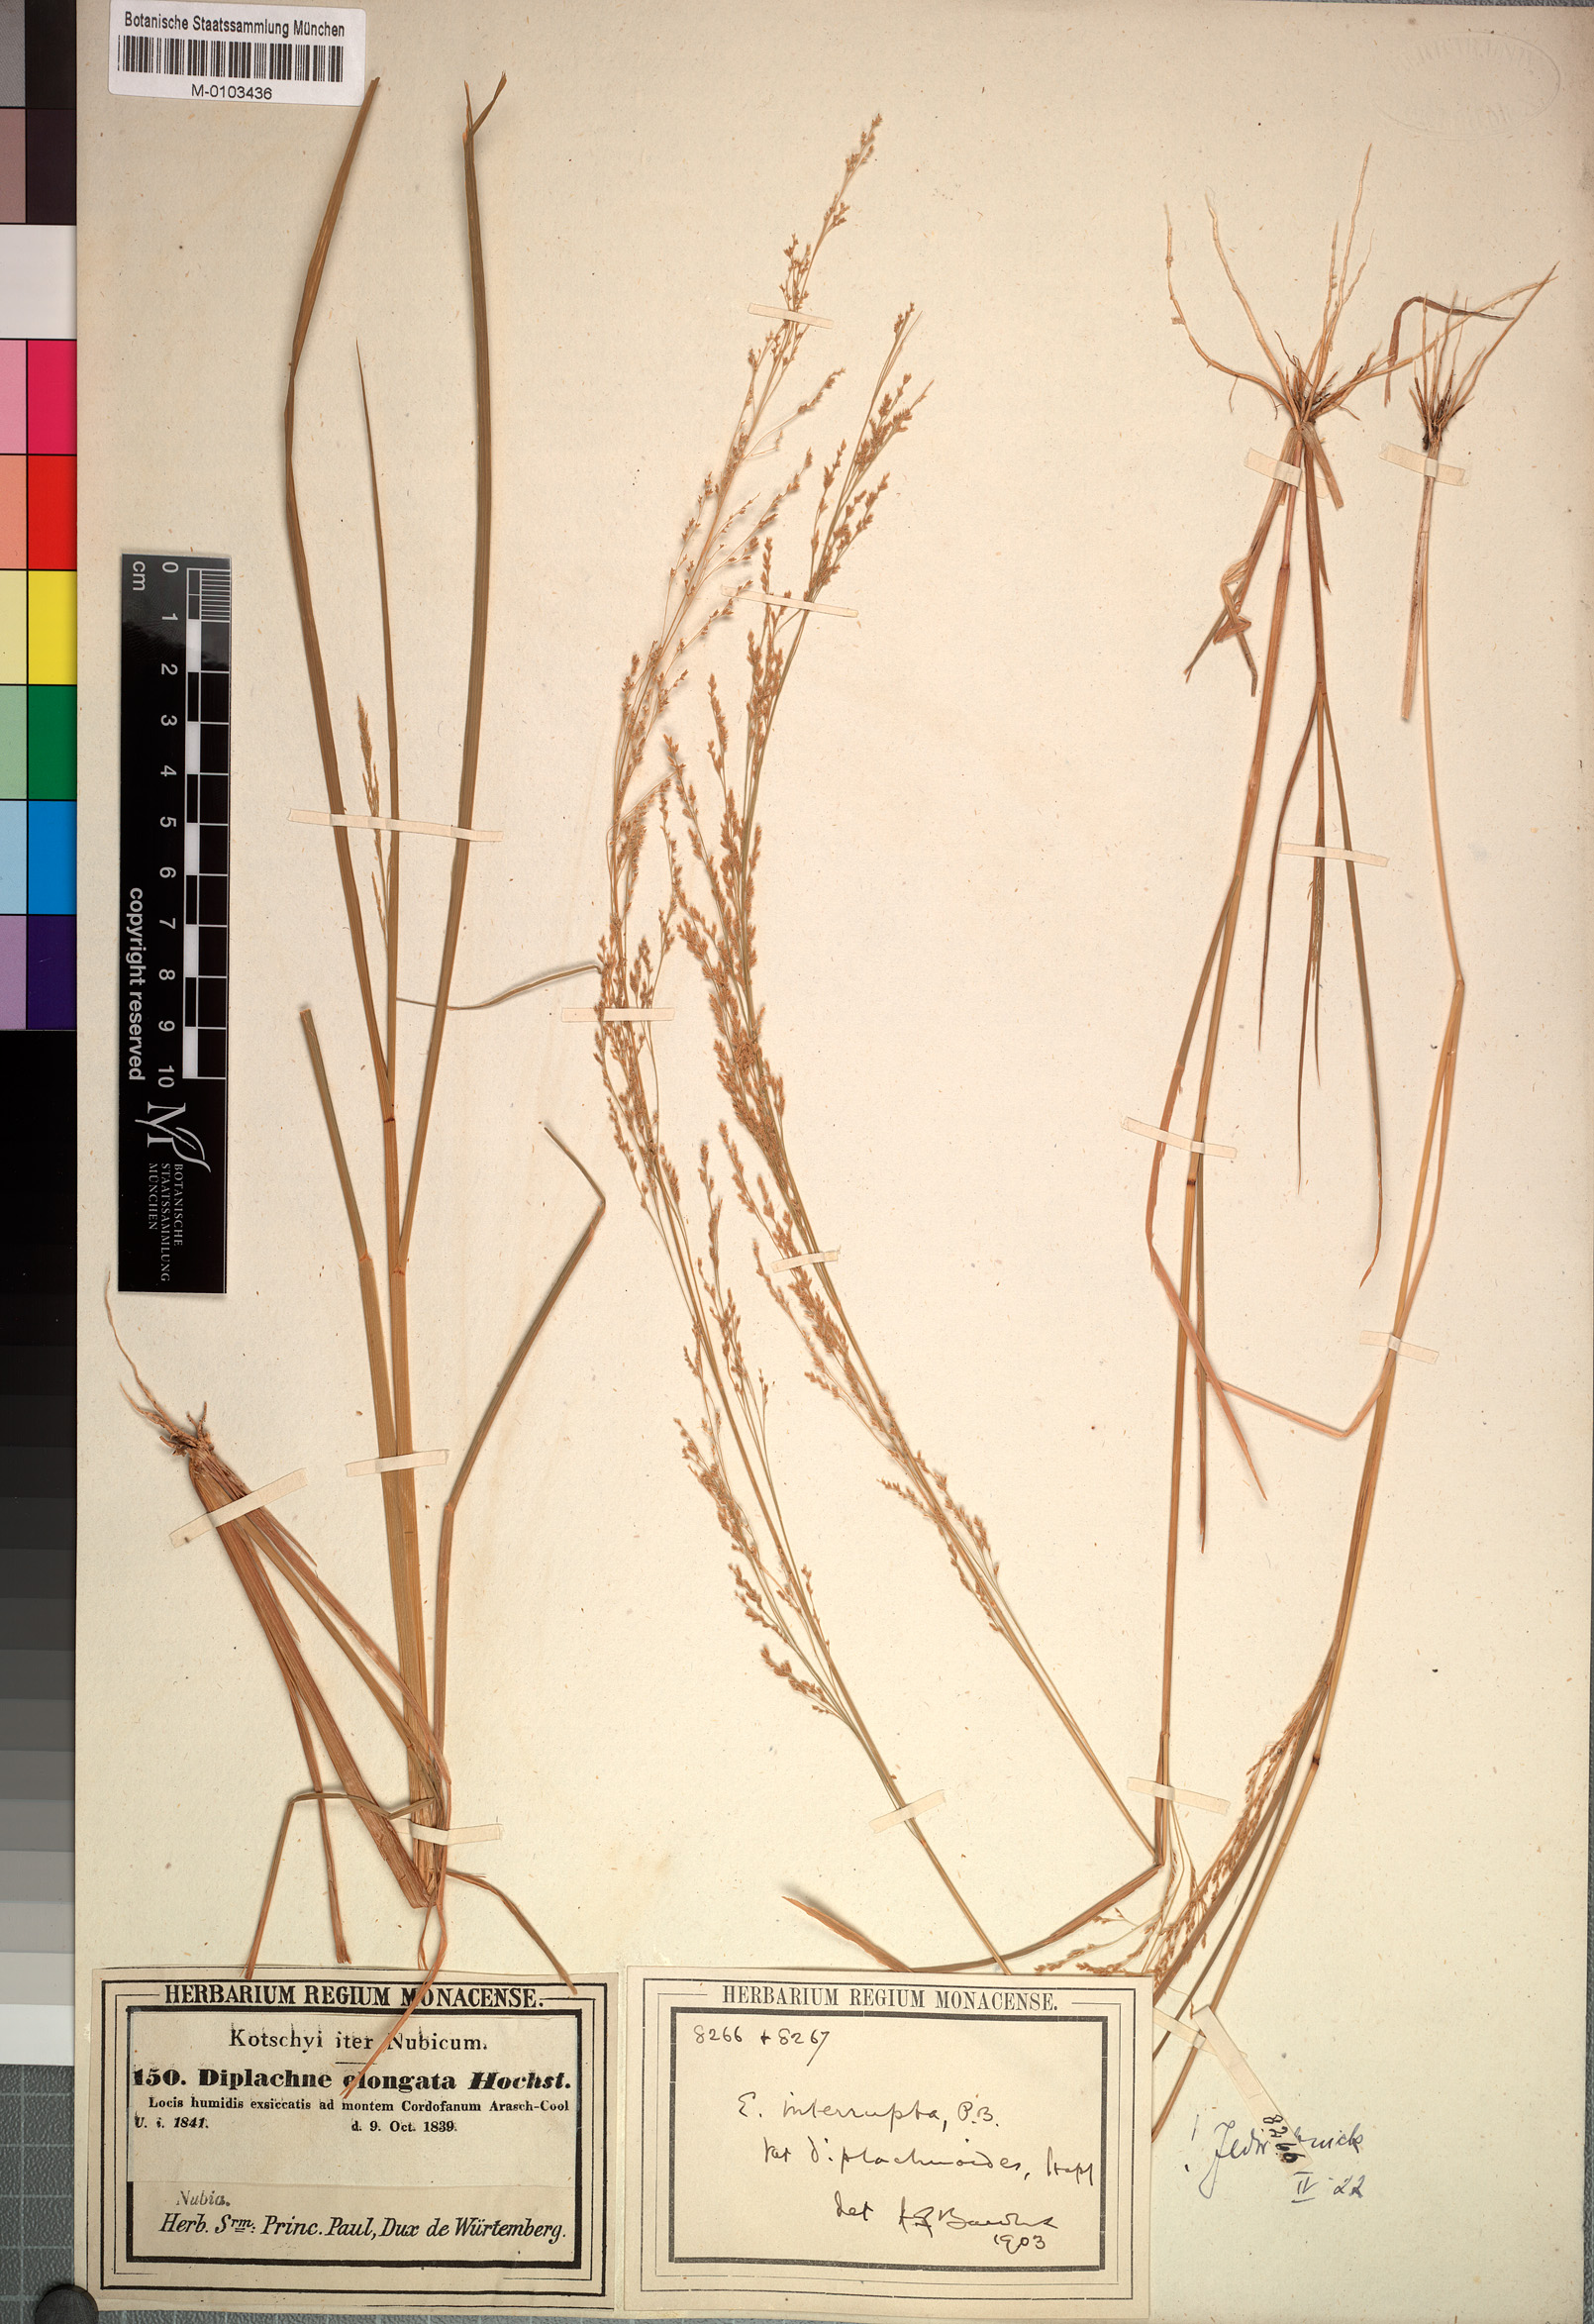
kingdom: Plantae
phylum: Tracheophyta
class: Liliopsida
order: Poales
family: Poaceae
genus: Eragrostis
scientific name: Eragrostis japonica
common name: Pond lovegrass
